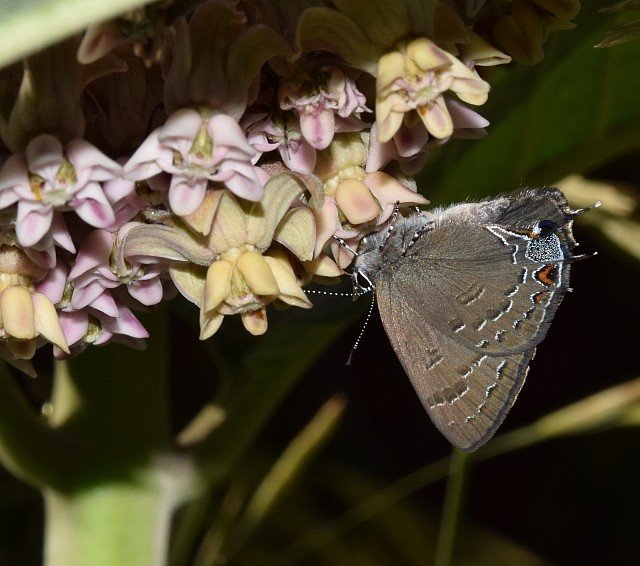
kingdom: Animalia
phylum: Arthropoda
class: Insecta
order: Lepidoptera
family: Lycaenidae
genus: Satyrium
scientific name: Satyrium edwardsii
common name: Edwards' Hairstreak
